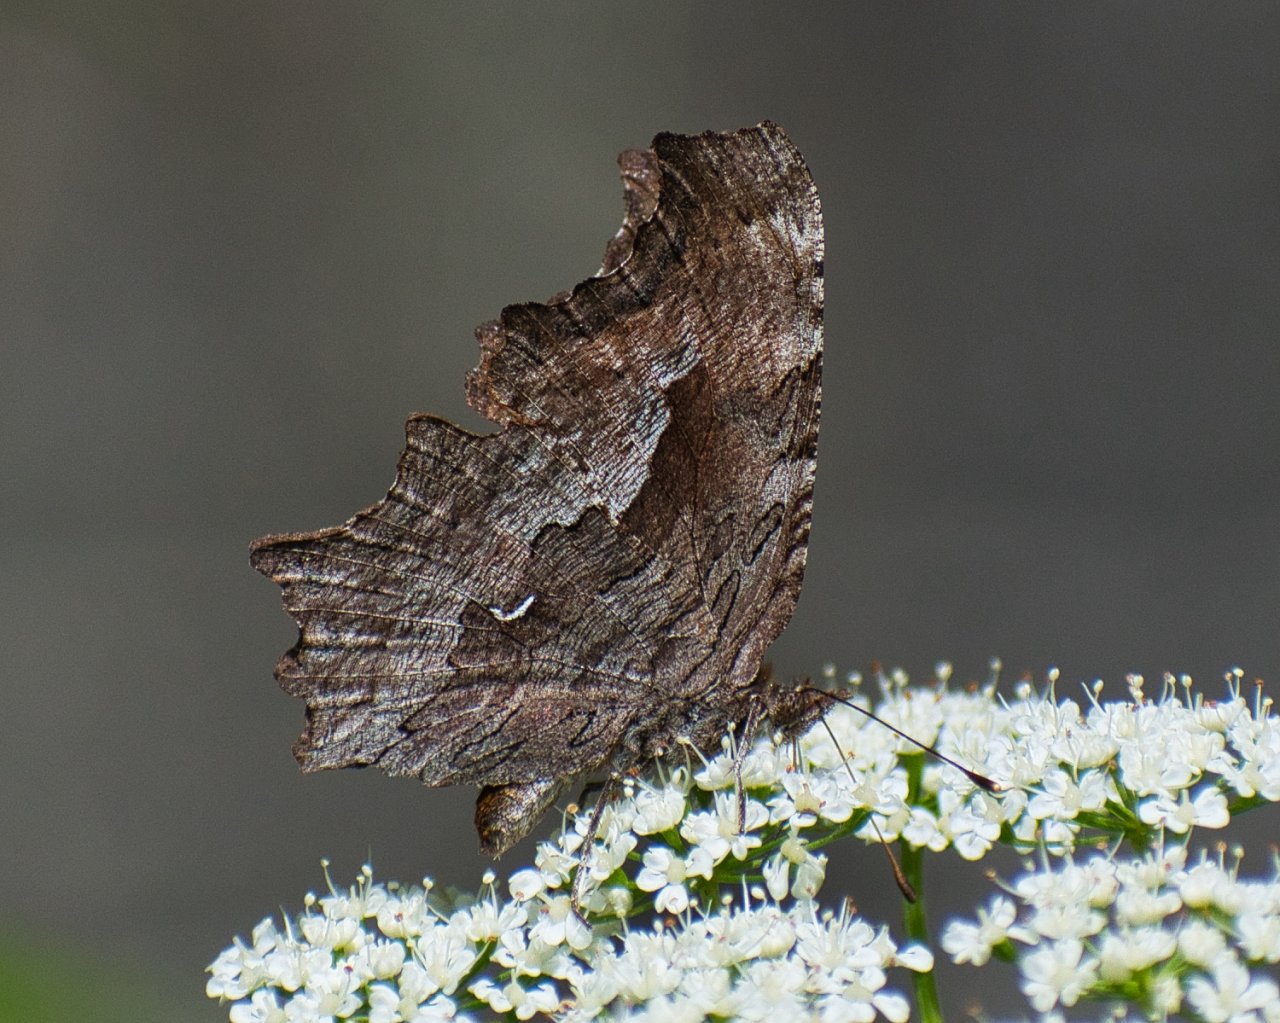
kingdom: Animalia
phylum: Arthropoda
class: Insecta
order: Lepidoptera
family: Nymphalidae
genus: Polygonia
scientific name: Polygonia gracilis
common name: Hoary Comma
